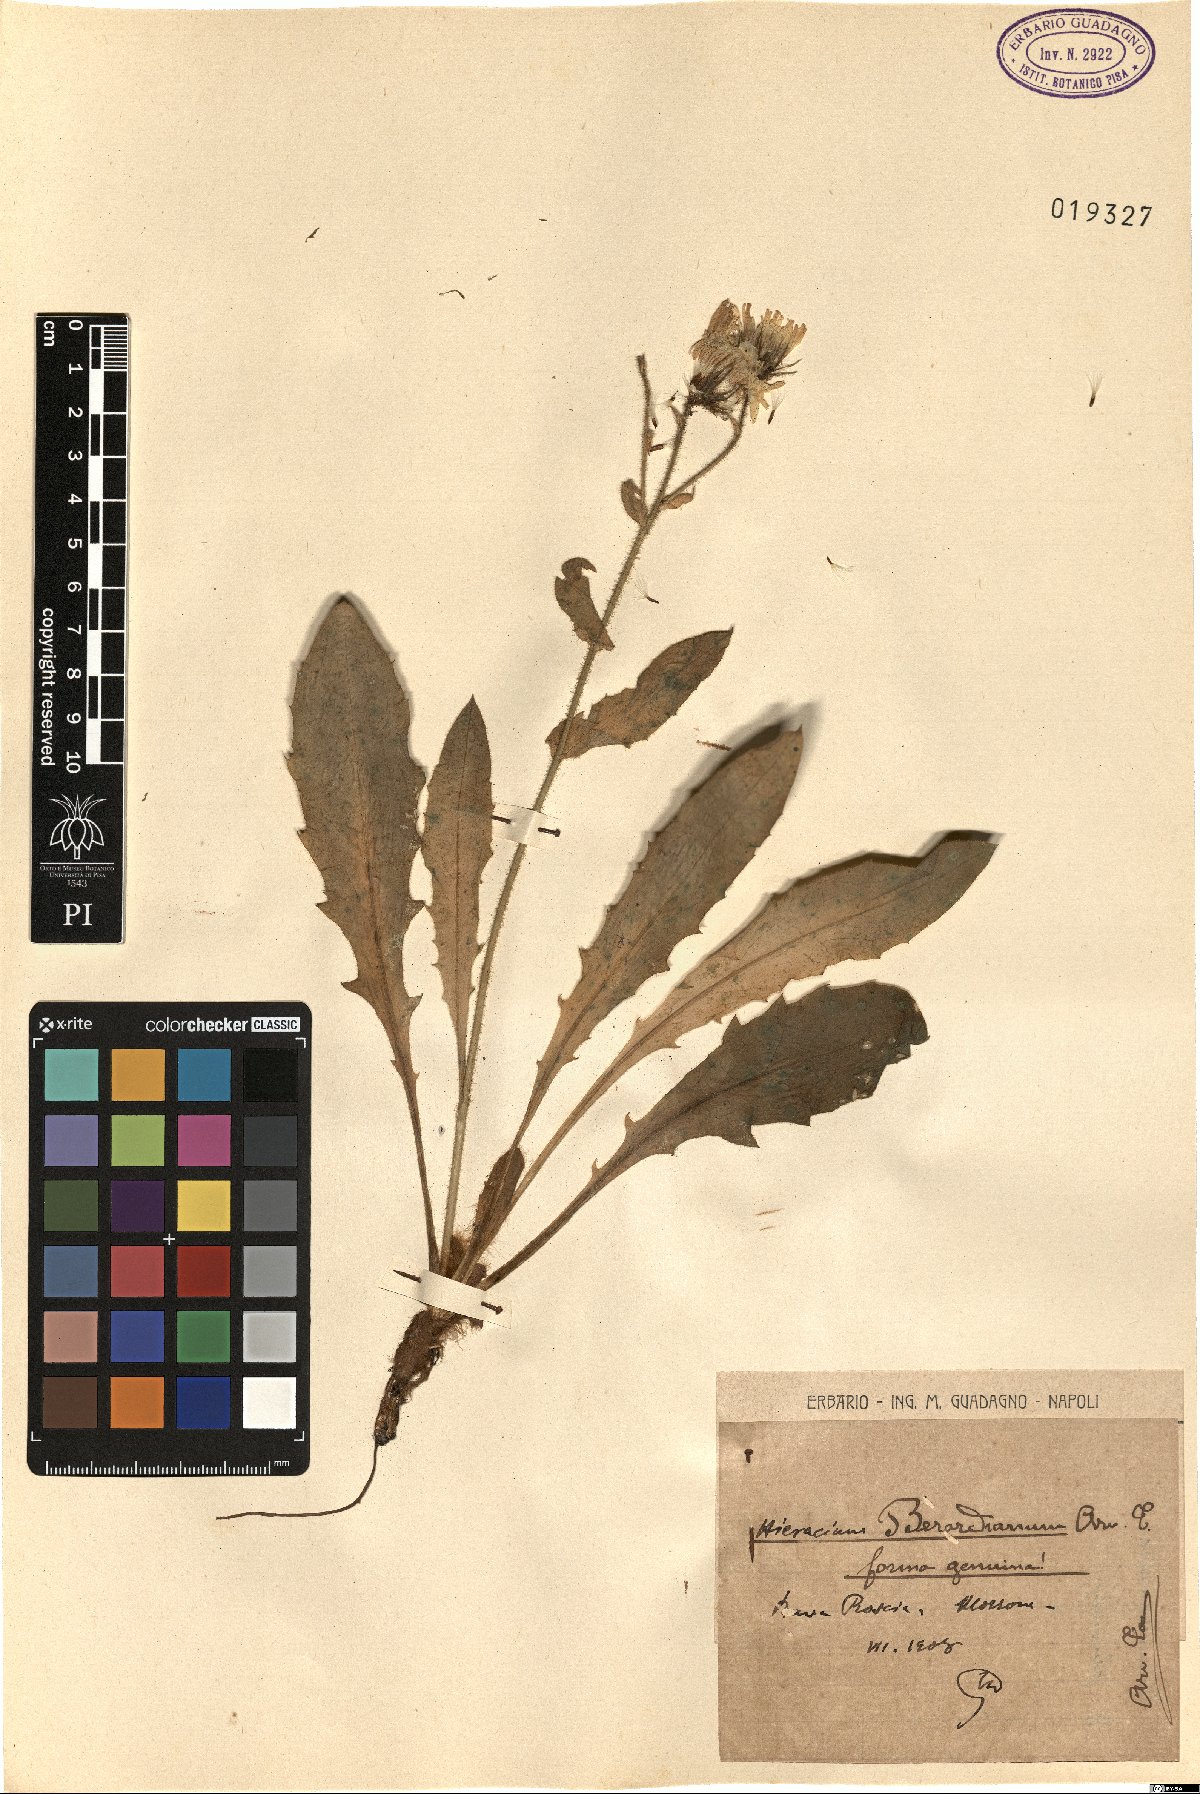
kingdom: Plantae
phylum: Tracheophyta
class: Magnoliopsida
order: Asterales
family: Asteraceae
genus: Hieracium
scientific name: Hieracium amplexicaule
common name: Sticky hawkweed
